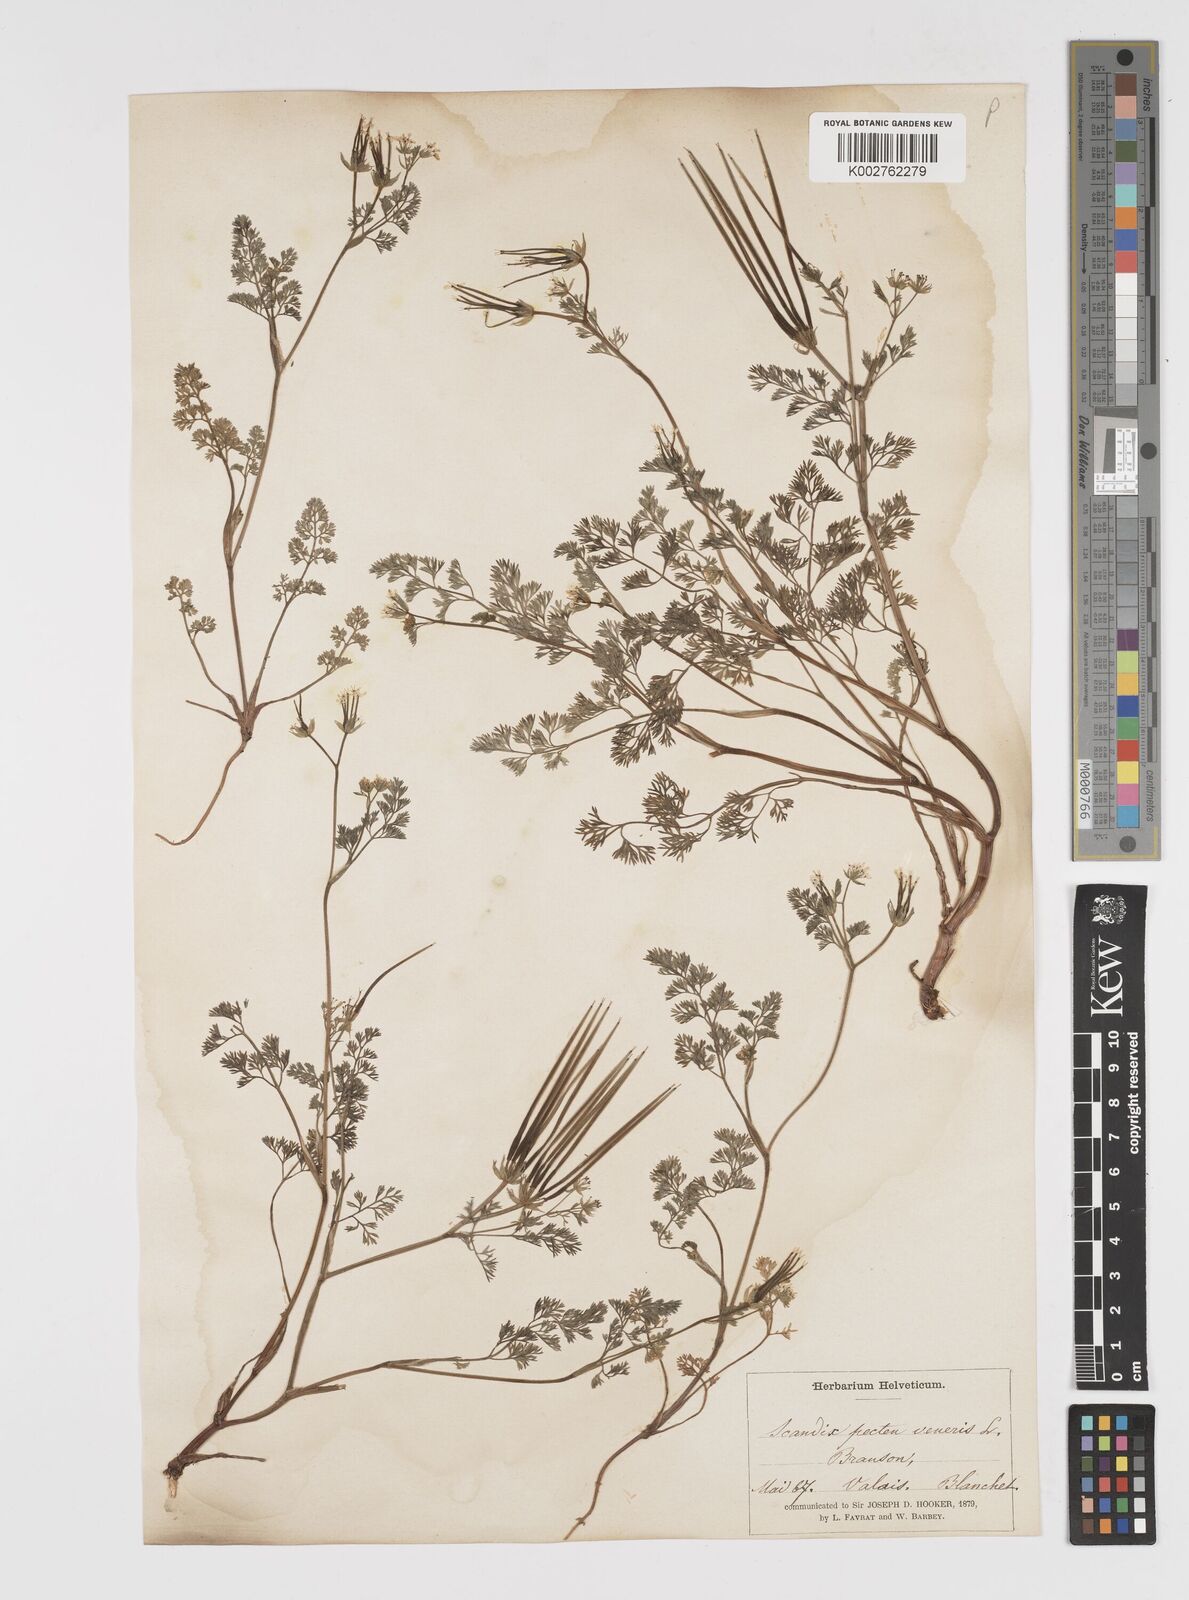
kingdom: Plantae
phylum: Tracheophyta
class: Magnoliopsida
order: Apiales
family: Apiaceae
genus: Scandix
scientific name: Scandix pecten-veneris
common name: Shepherd's-needle
